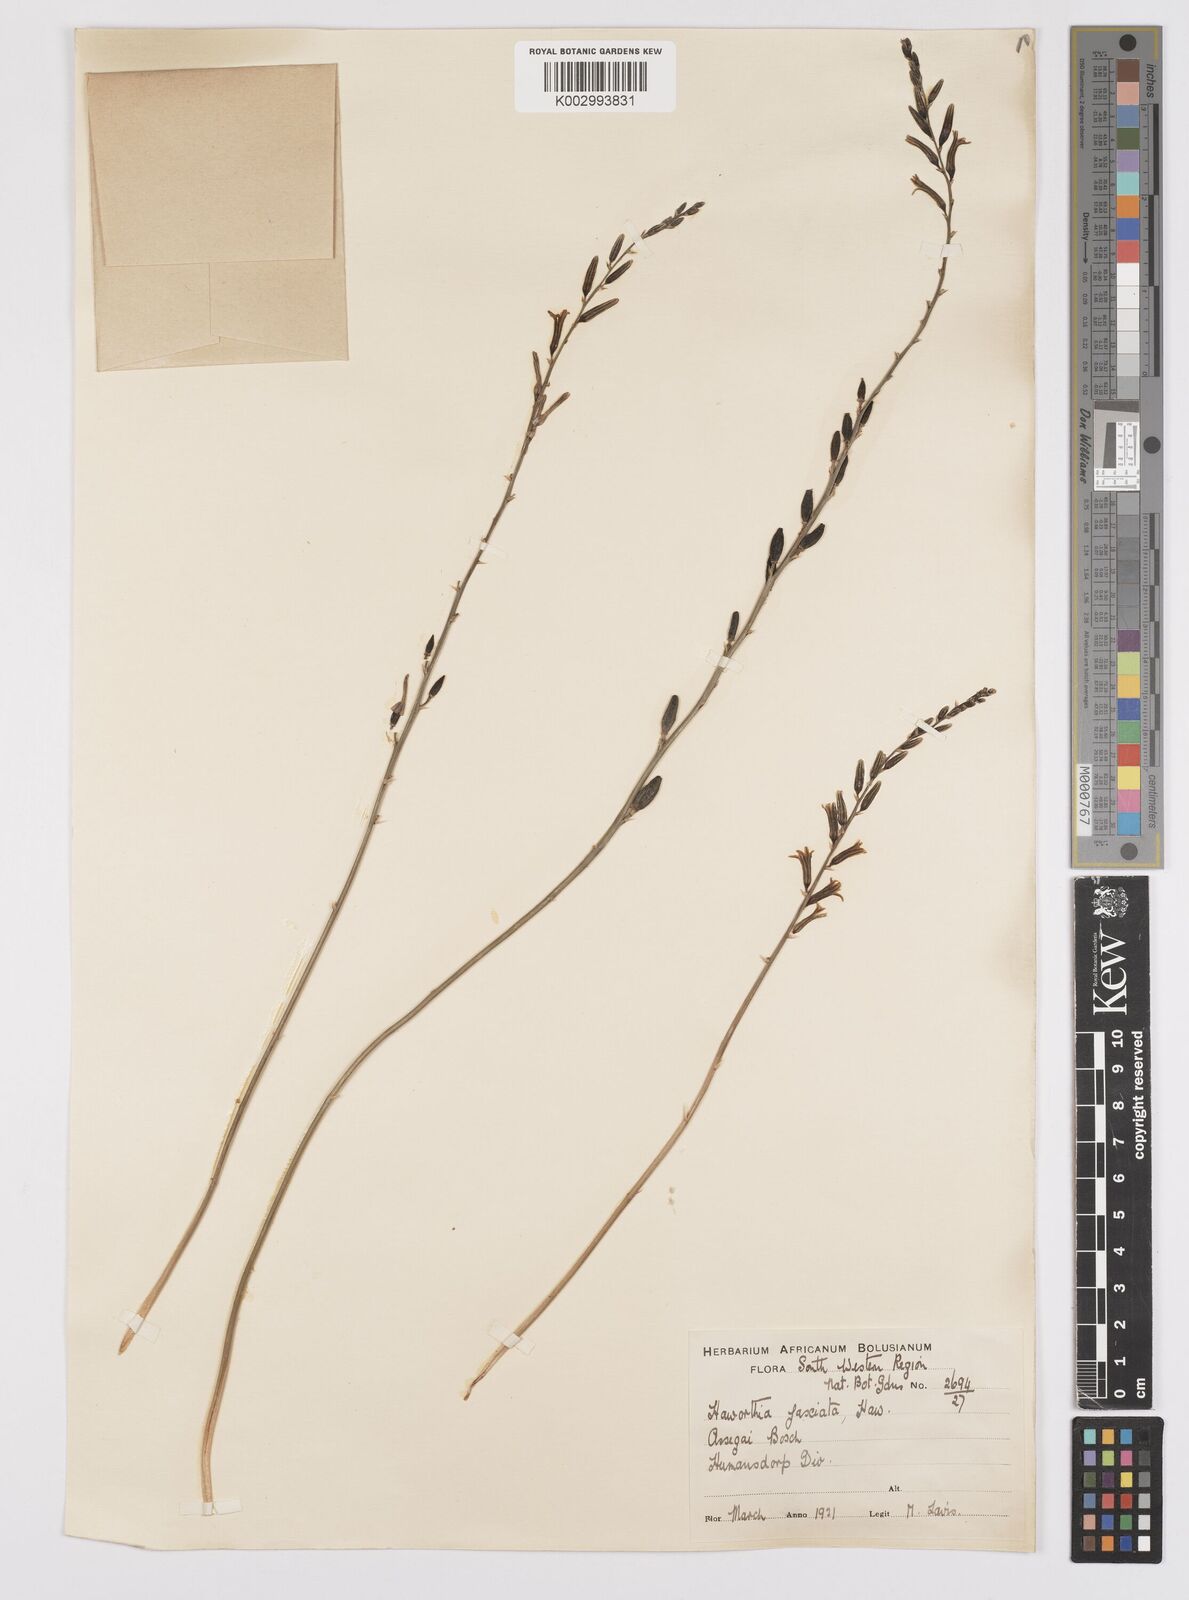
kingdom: Plantae
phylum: Tracheophyta
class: Liliopsida
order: Asparagales
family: Asphodelaceae
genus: Haworthiopsis
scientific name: Haworthiopsis fasciata
